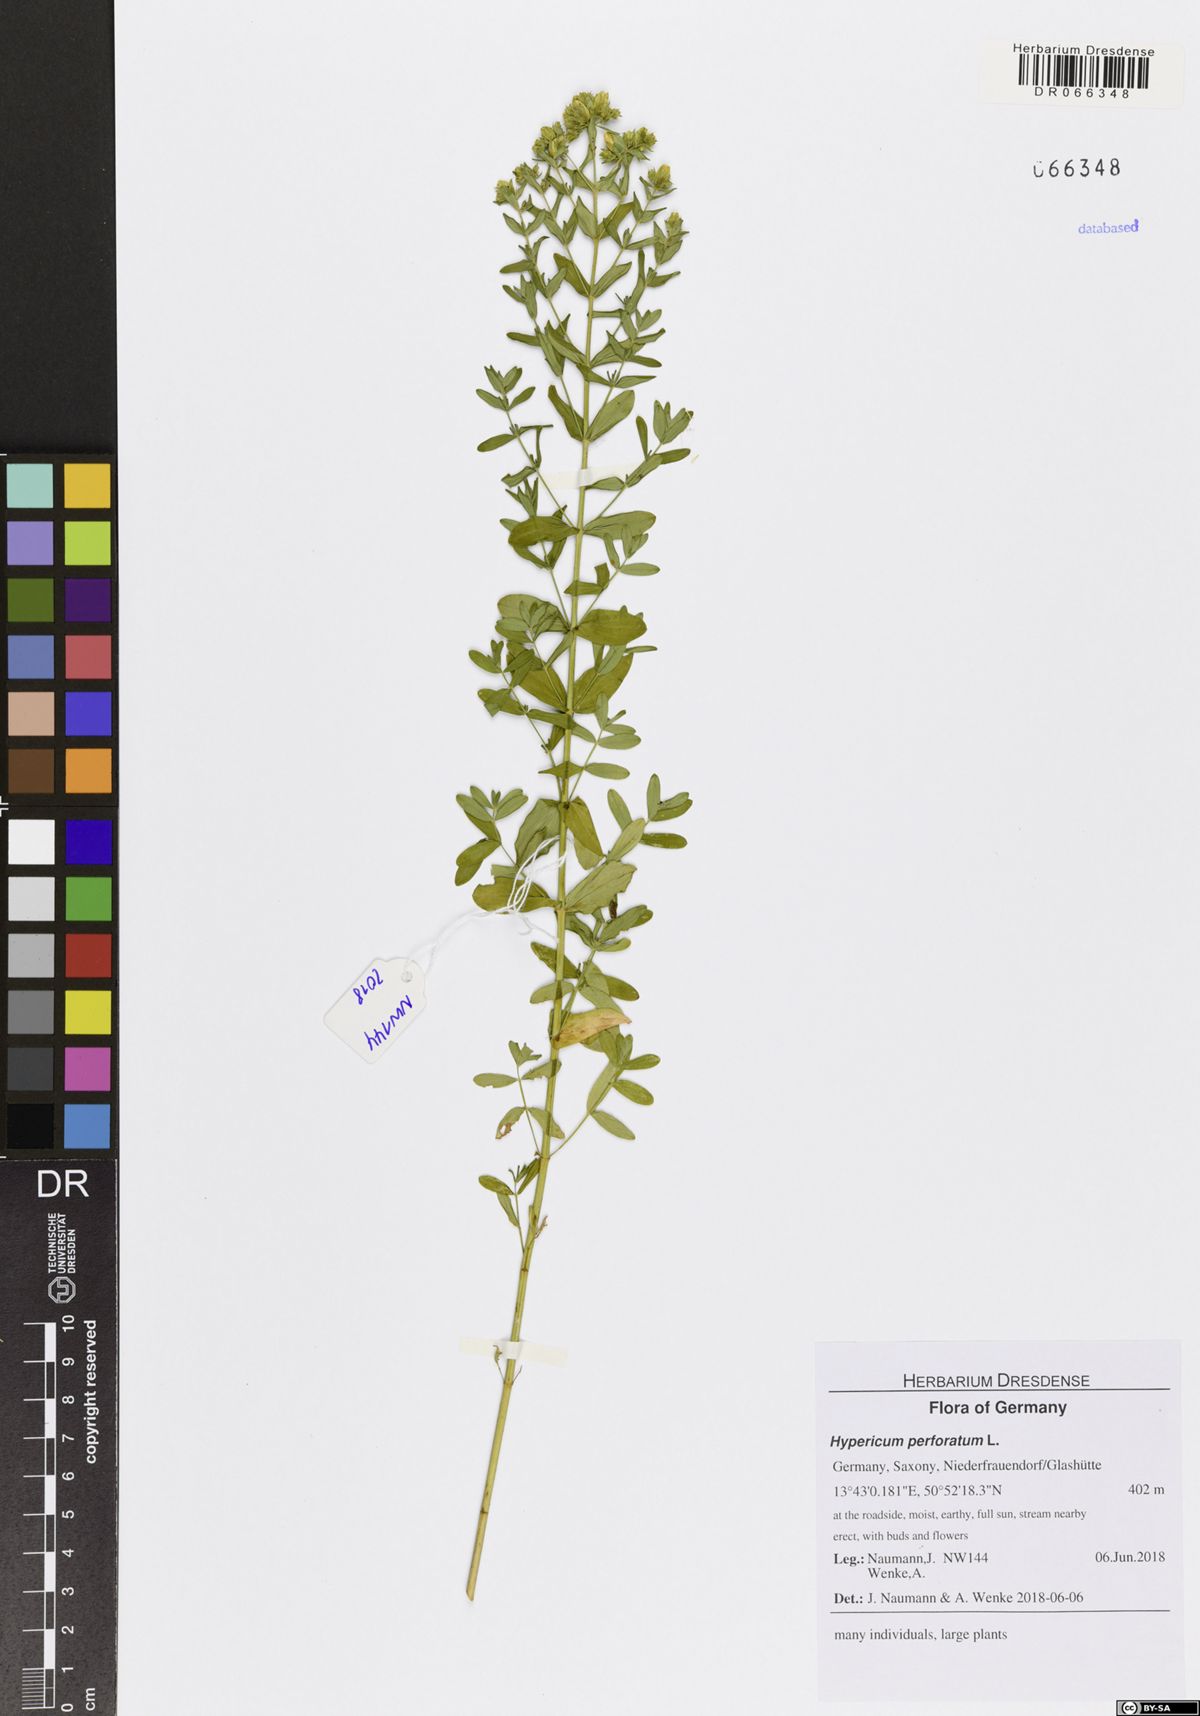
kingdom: Plantae
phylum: Tracheophyta
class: Magnoliopsida
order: Malpighiales
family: Hypericaceae
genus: Hypericum
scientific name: Hypericum perforatum
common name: Common st. johnswort
